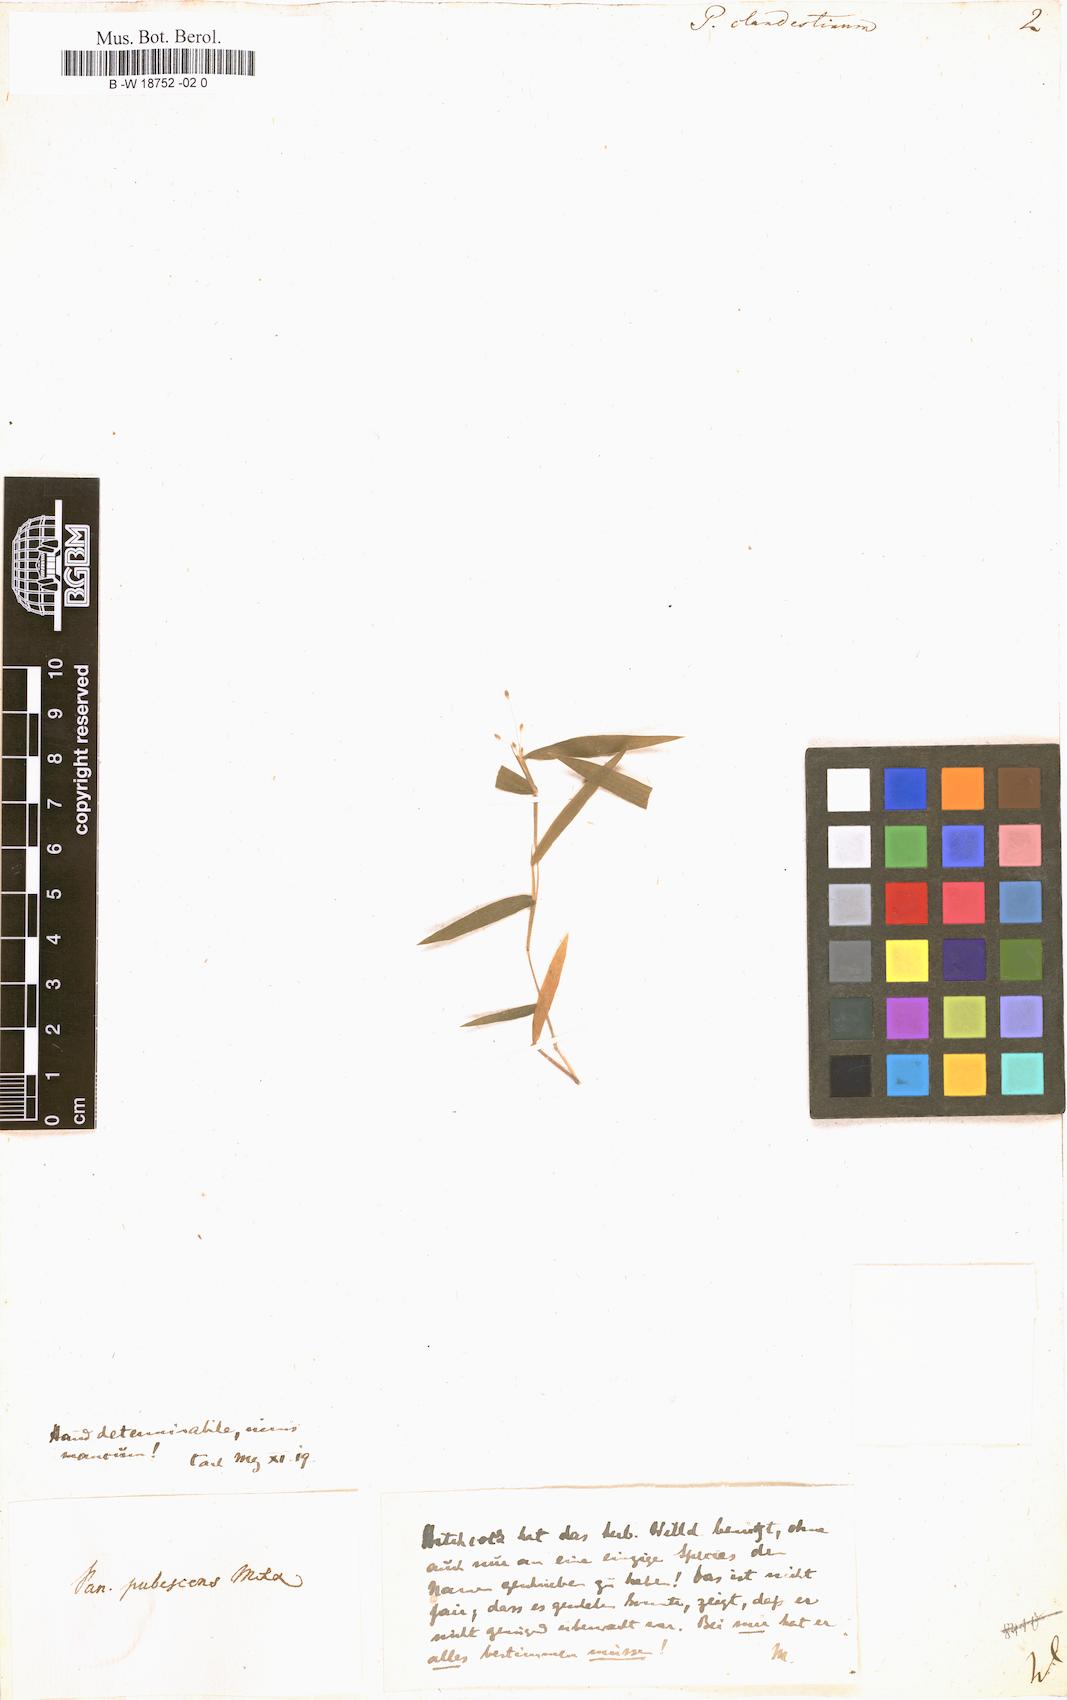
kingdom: Plantae
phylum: Tracheophyta
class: Liliopsida
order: Poales
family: Poaceae
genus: Panicum
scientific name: Panicum clandestinum
